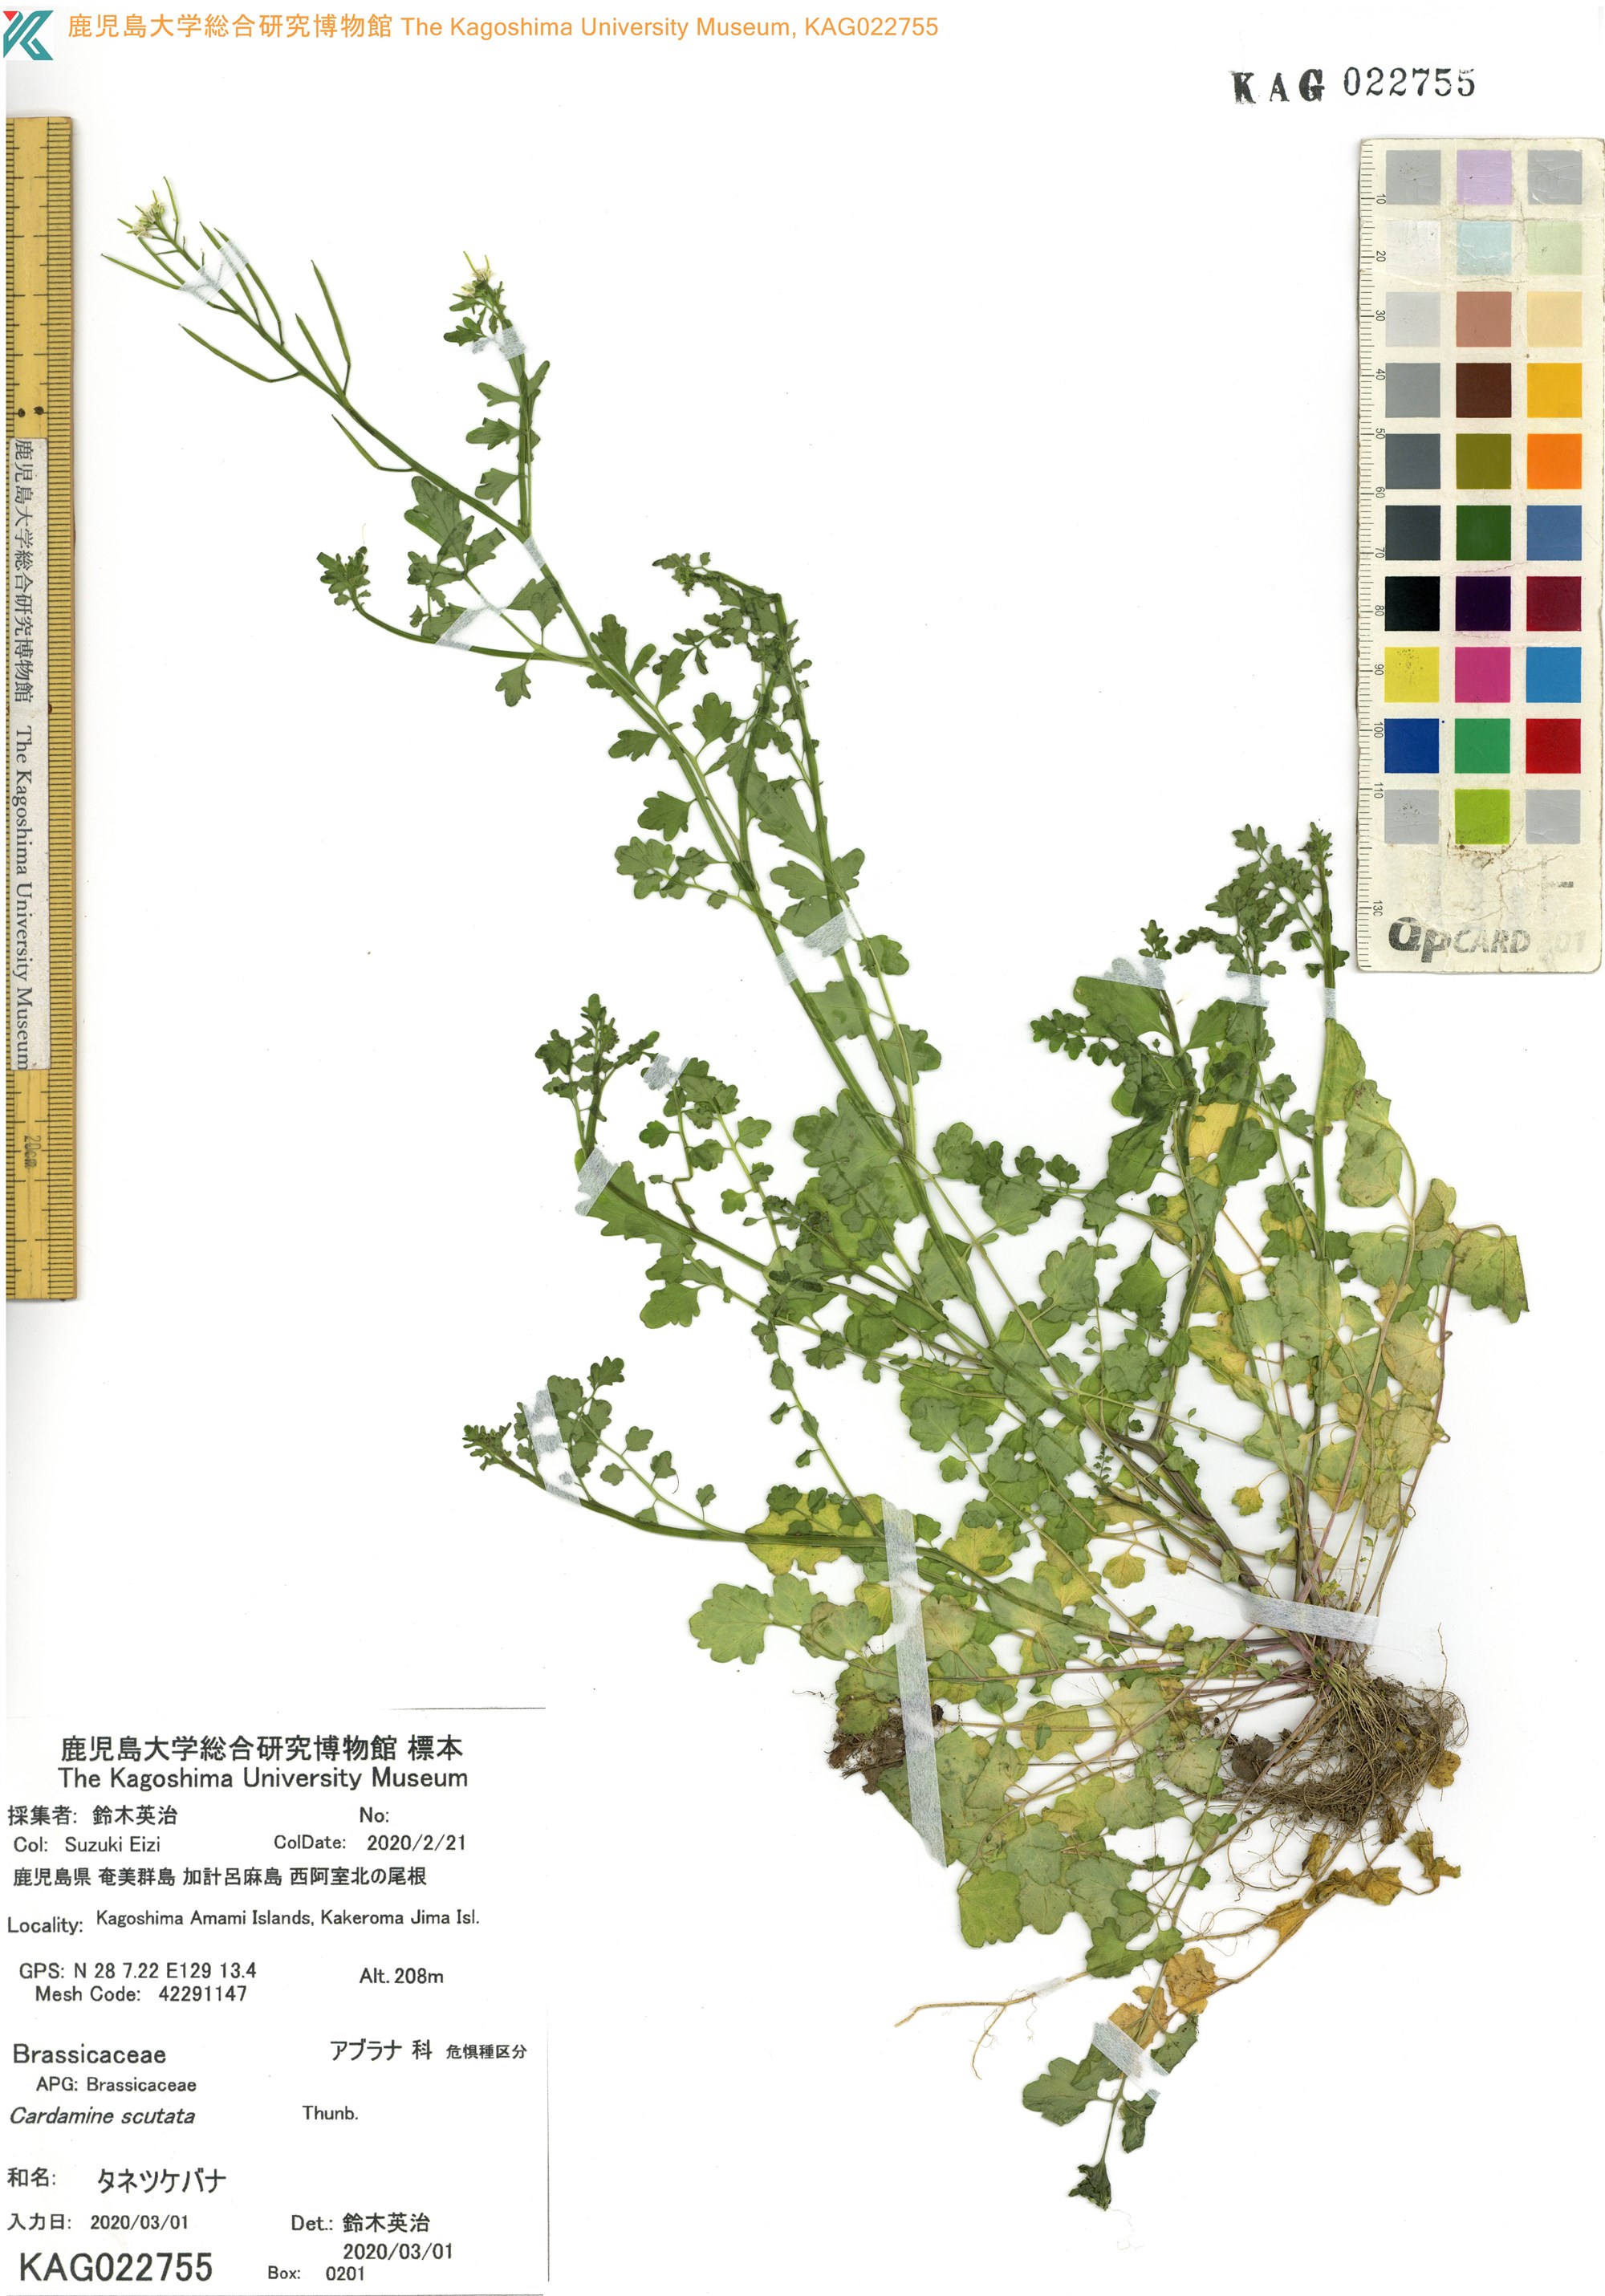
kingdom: Plantae
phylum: Tracheophyta
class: Magnoliopsida
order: Brassicales
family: Brassicaceae
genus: Cardamine
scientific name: Cardamine occulta
